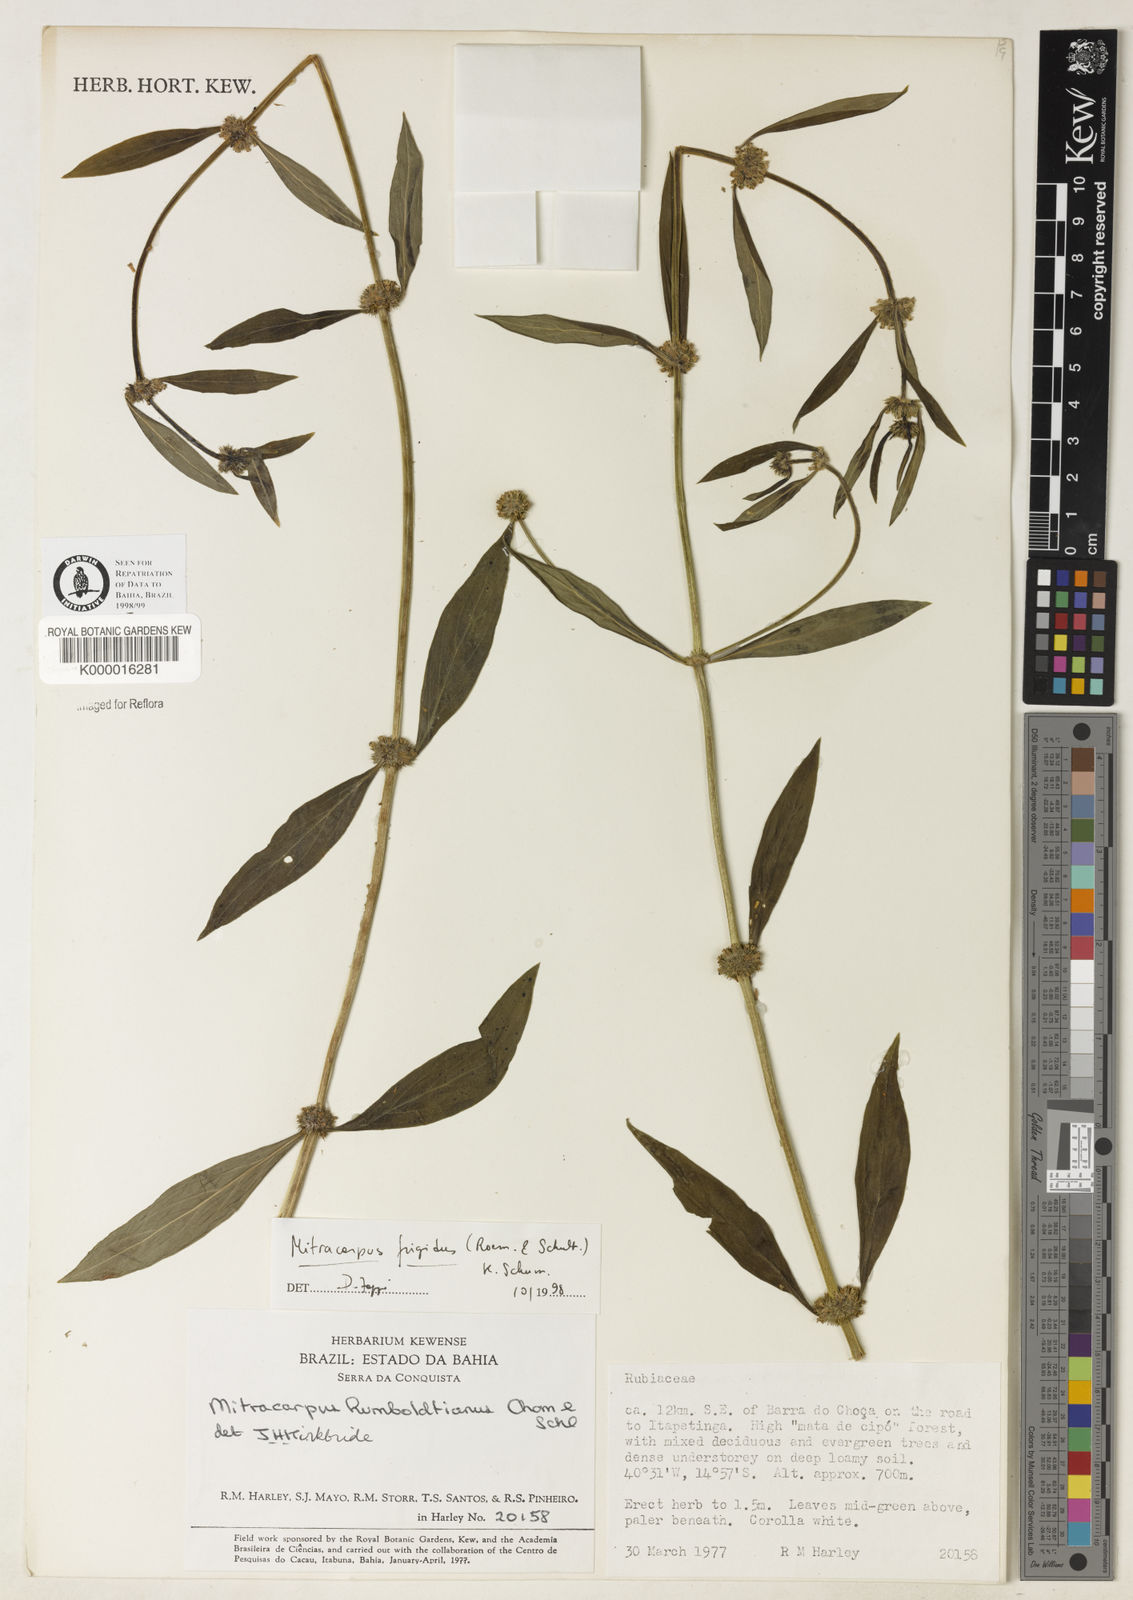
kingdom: Plantae
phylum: Tracheophyta
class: Magnoliopsida
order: Gentianales
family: Rubiaceae
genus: Mitracarpus
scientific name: Mitracarpus frigidus
